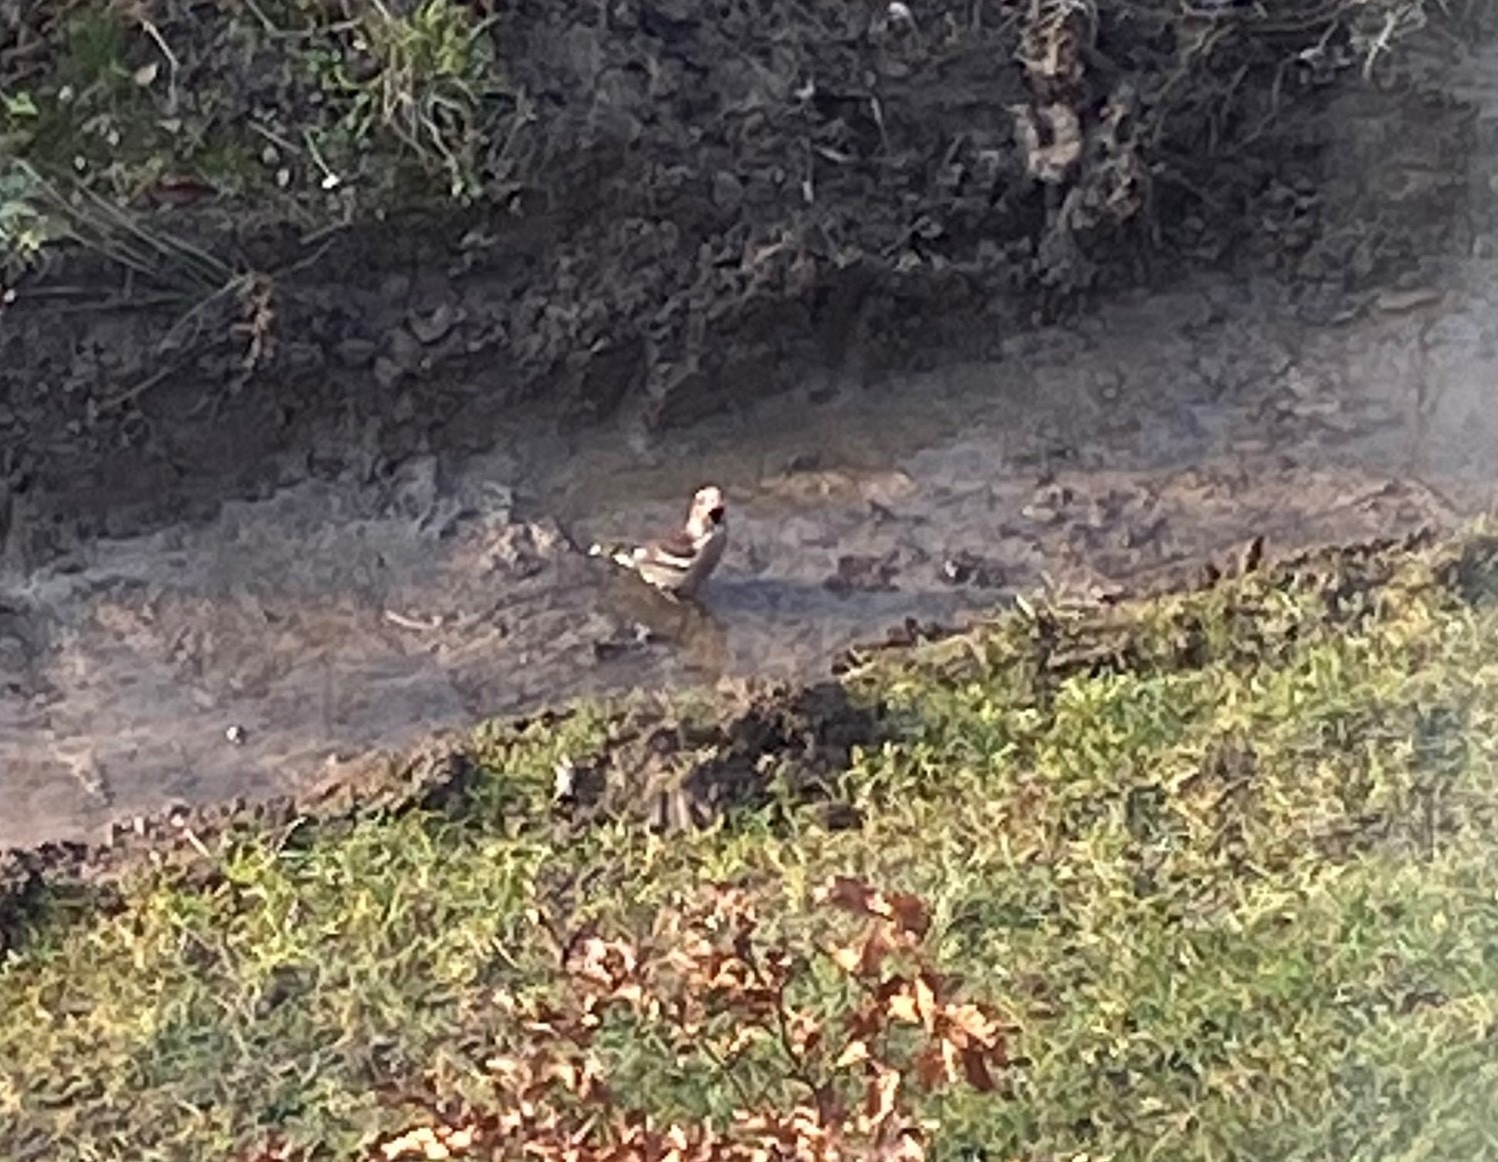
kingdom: Animalia
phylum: Chordata
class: Aves
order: Passeriformes
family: Fringillidae
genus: Coccothraustes
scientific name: Coccothraustes coccothraustes
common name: Kernebider
